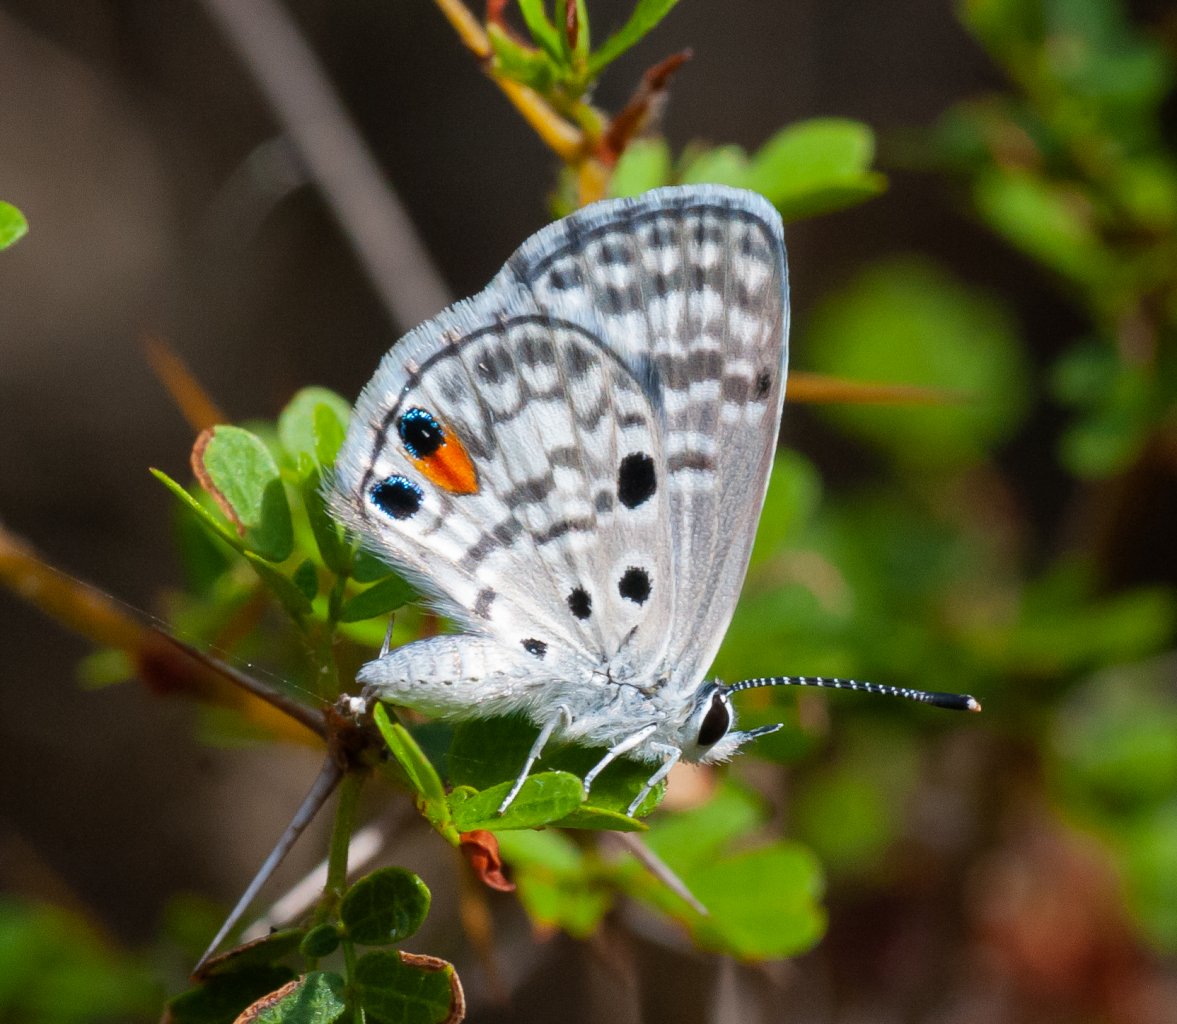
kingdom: Animalia
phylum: Arthropoda
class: Insecta
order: Lepidoptera
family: Lycaenidae
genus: Cyclargus
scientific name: Cyclargus ammon
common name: Nickerbean Blue
